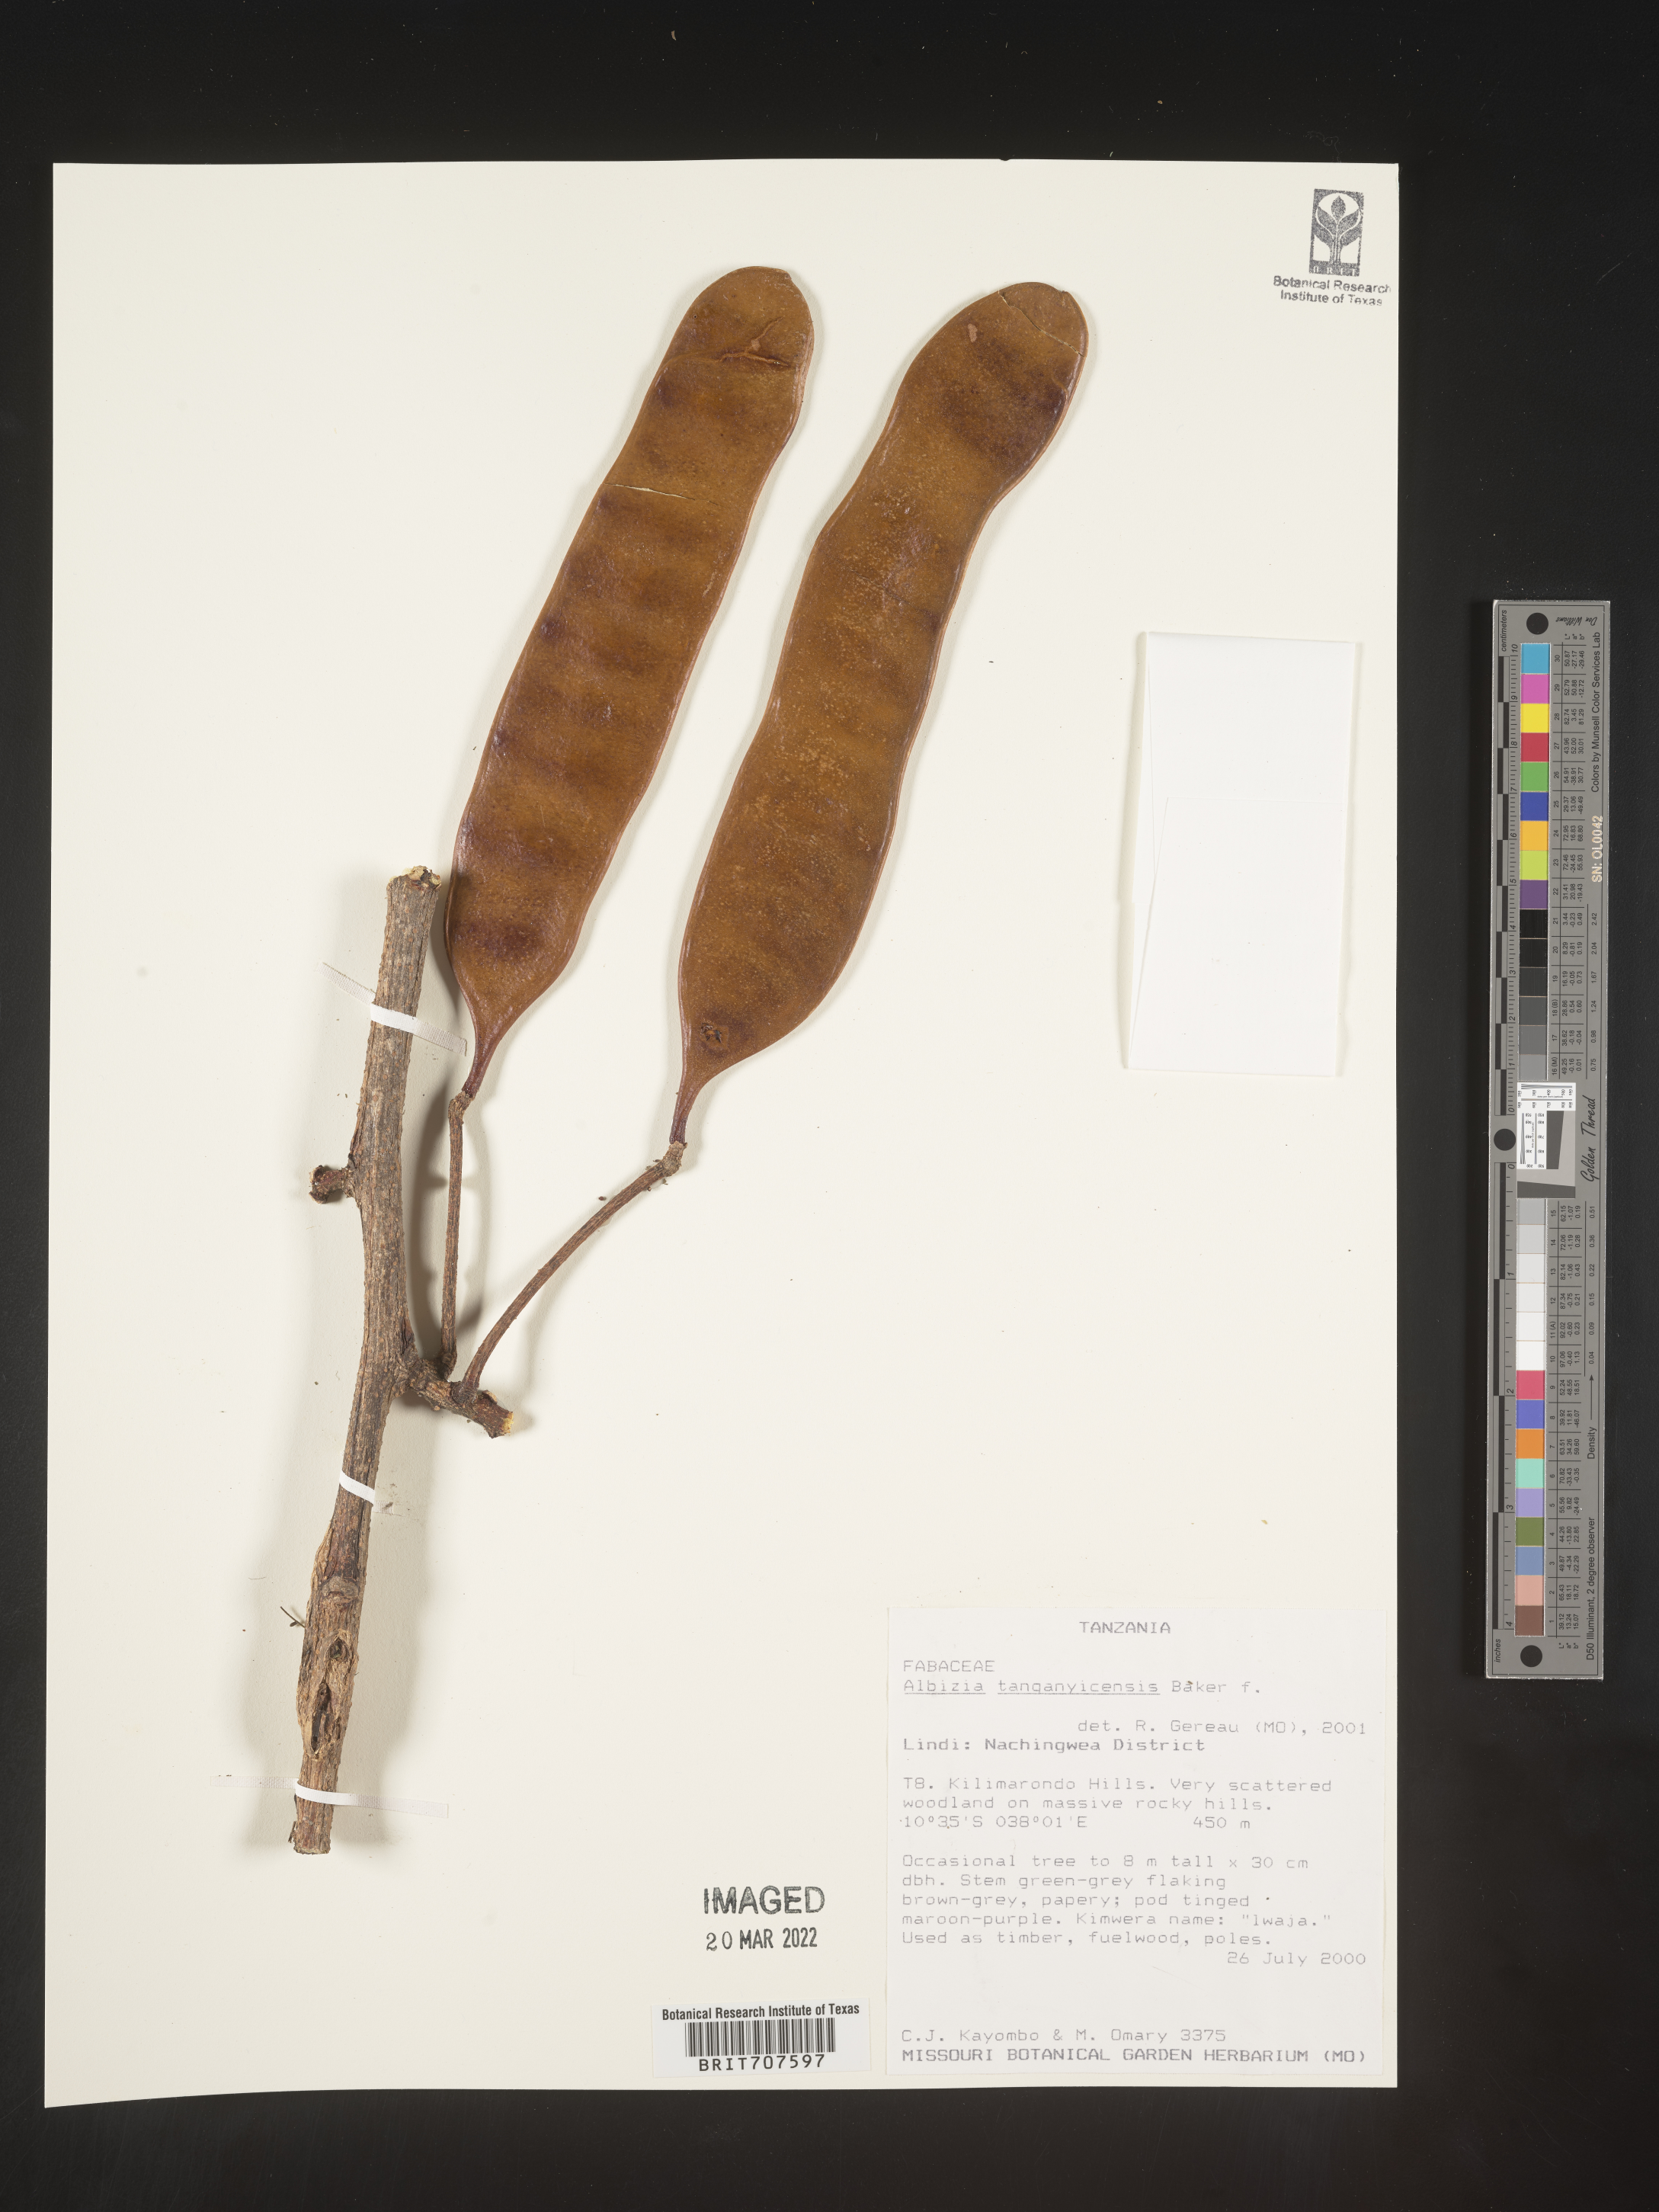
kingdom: Plantae
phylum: Tracheophyta
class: Magnoliopsida
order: Fabales
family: Fabaceae
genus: Albizia
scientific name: Albizia
